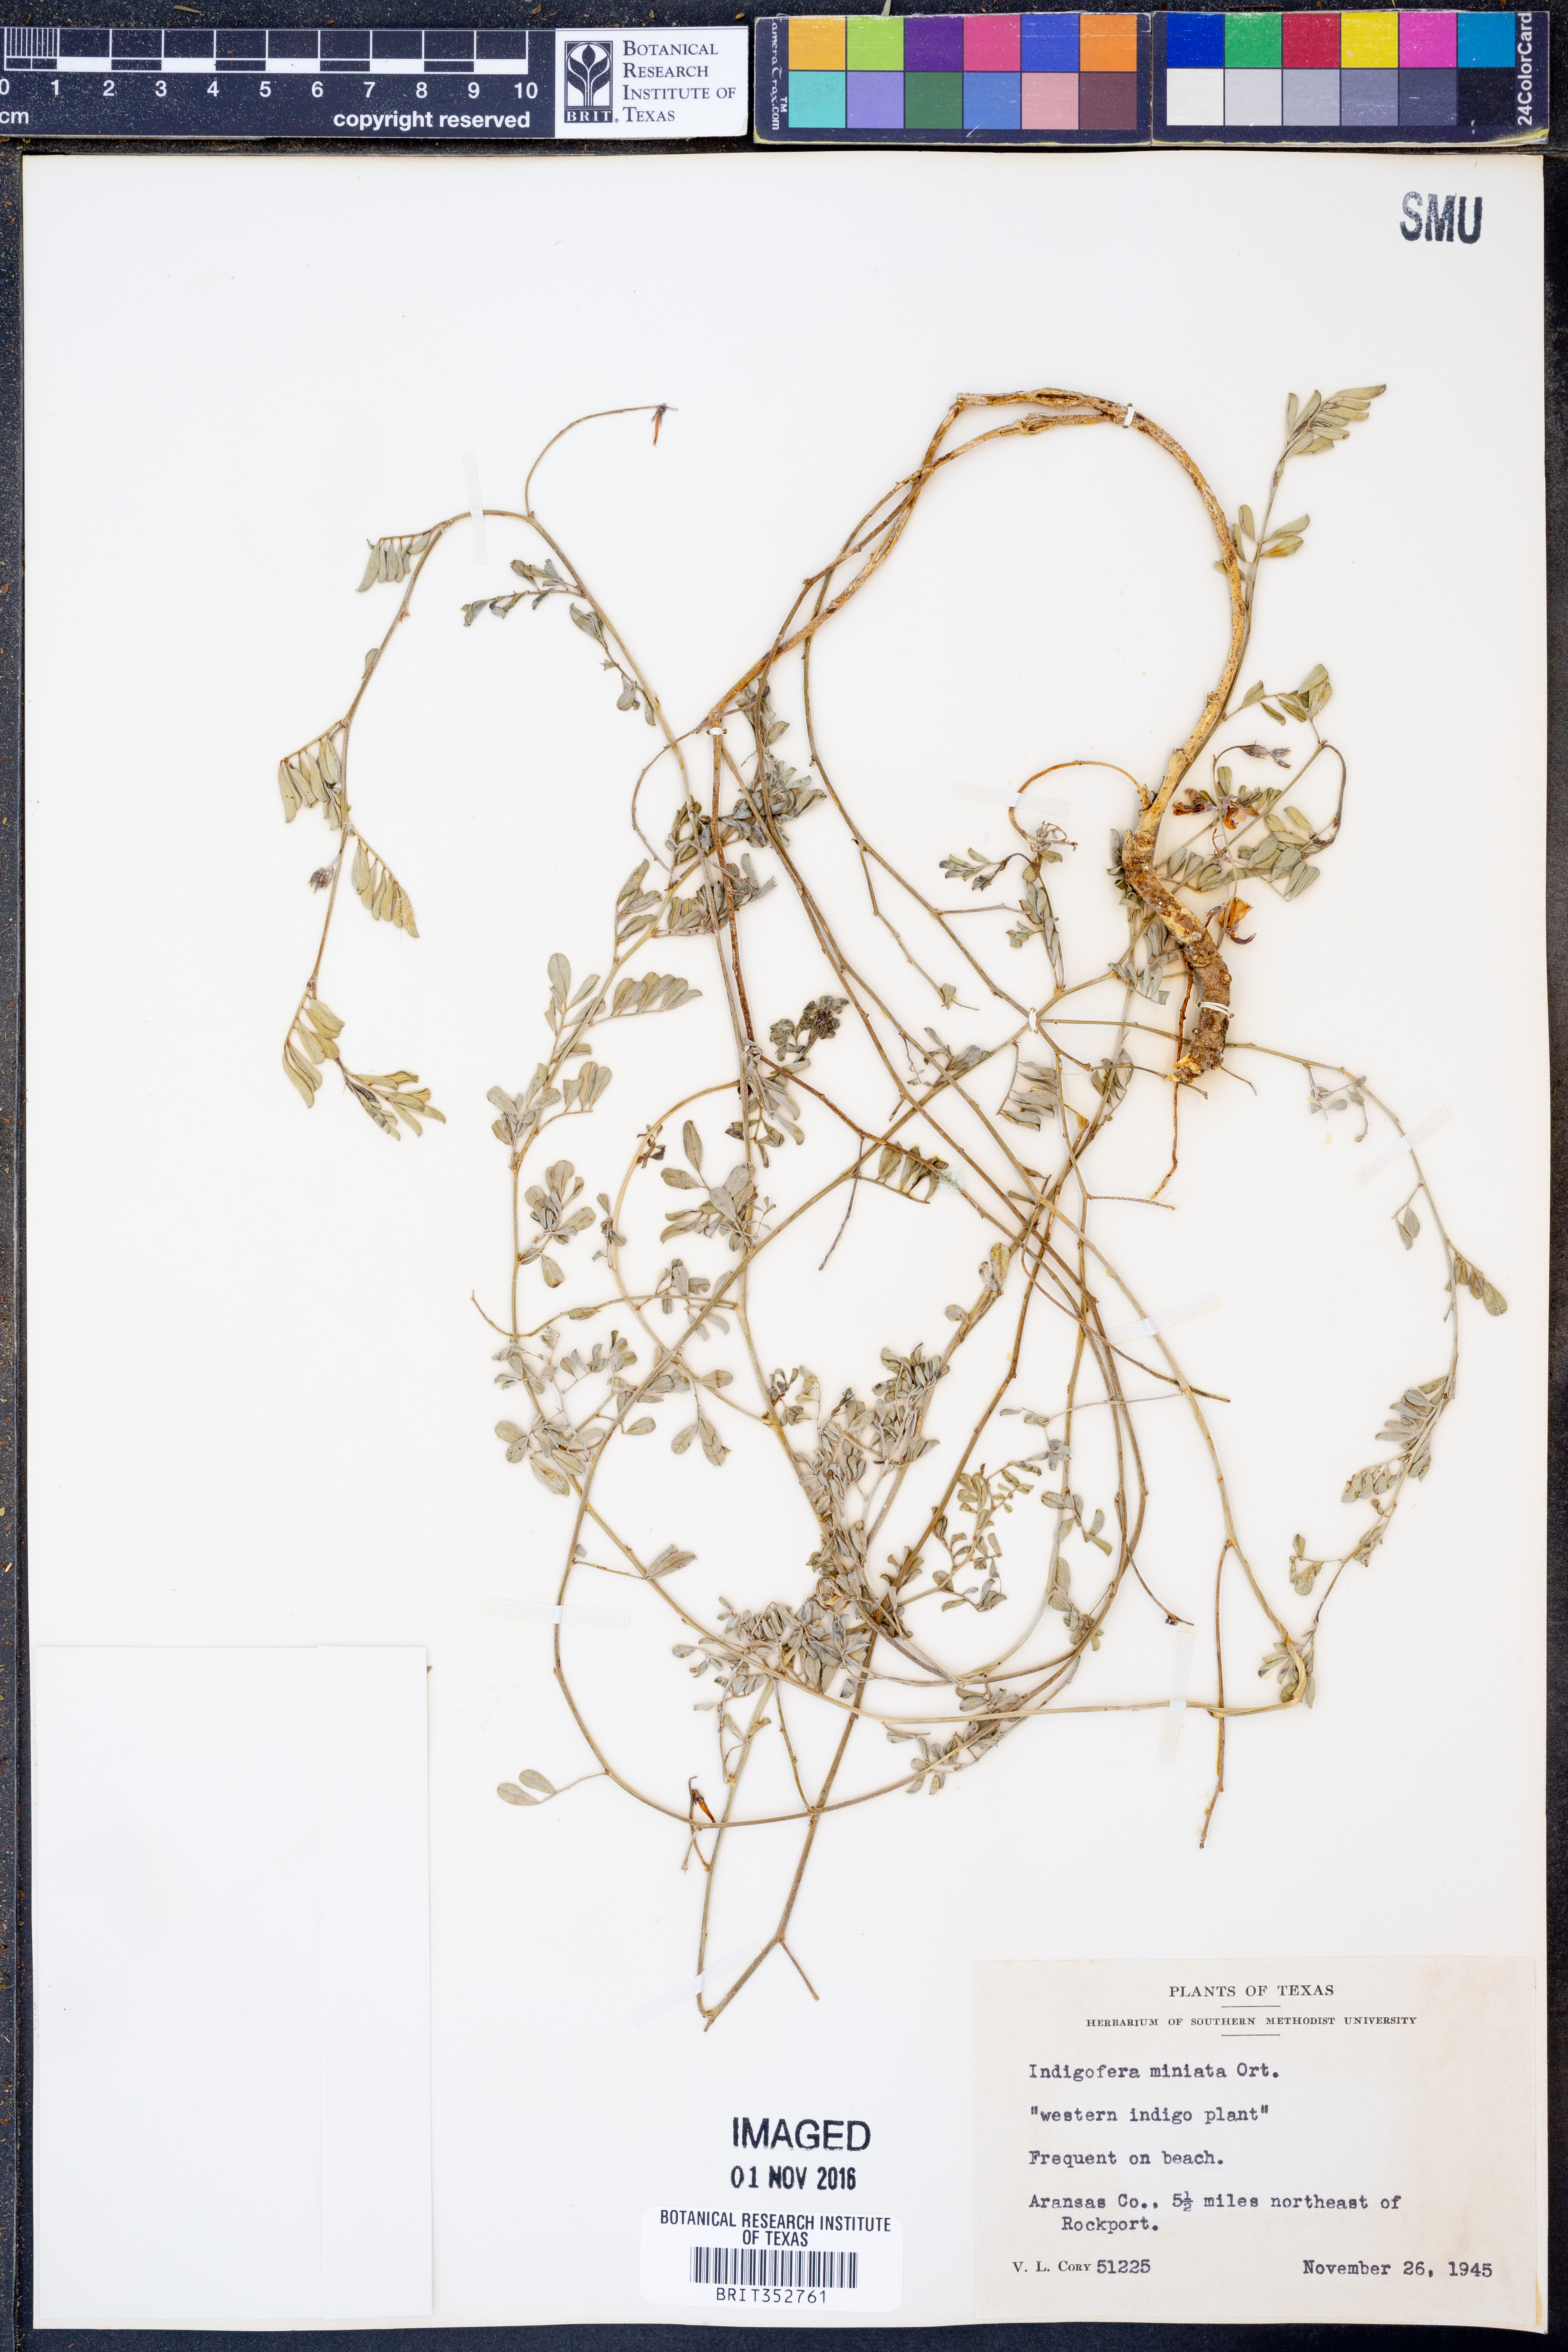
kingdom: Plantae
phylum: Tracheophyta
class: Magnoliopsida
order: Fabales
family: Fabaceae
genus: Indigofera
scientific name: Indigofera miniata
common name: Coast indigo
